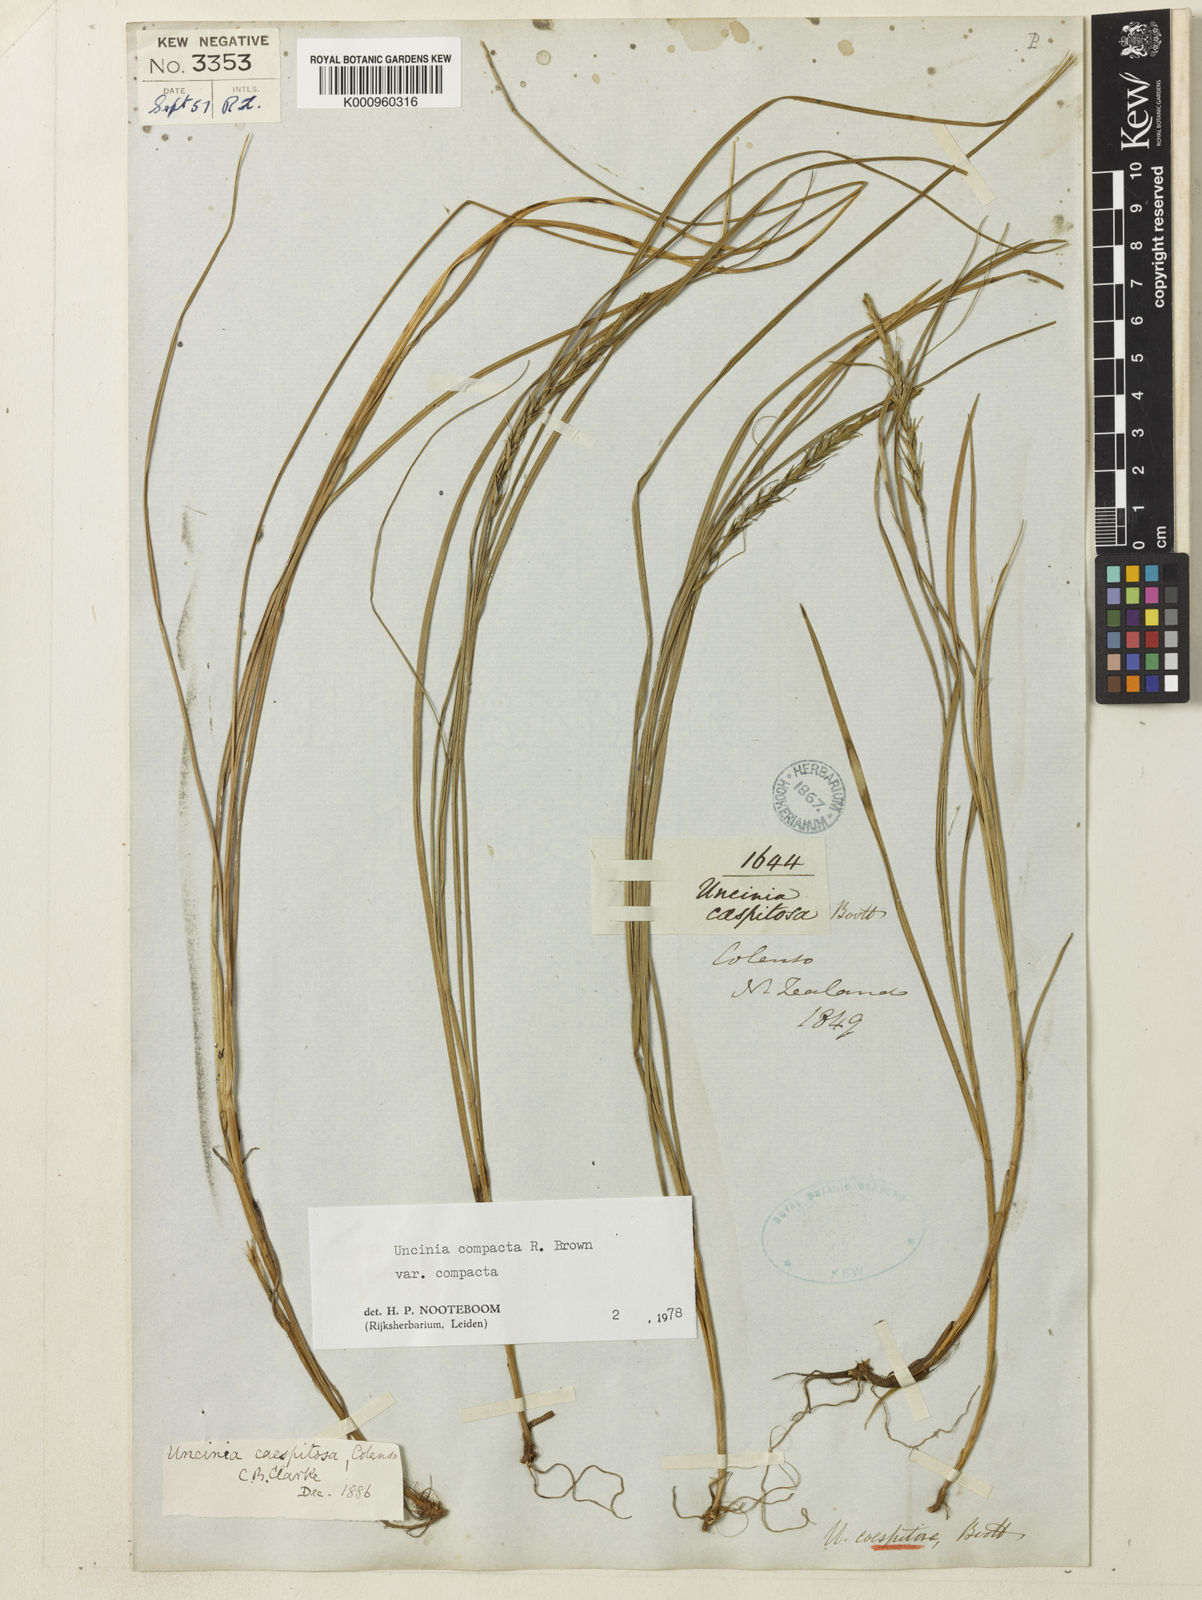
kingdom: Plantae
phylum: Tracheophyta
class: Liliopsida
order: Poales
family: Cyperaceae
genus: Carex
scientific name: Carex astricta
